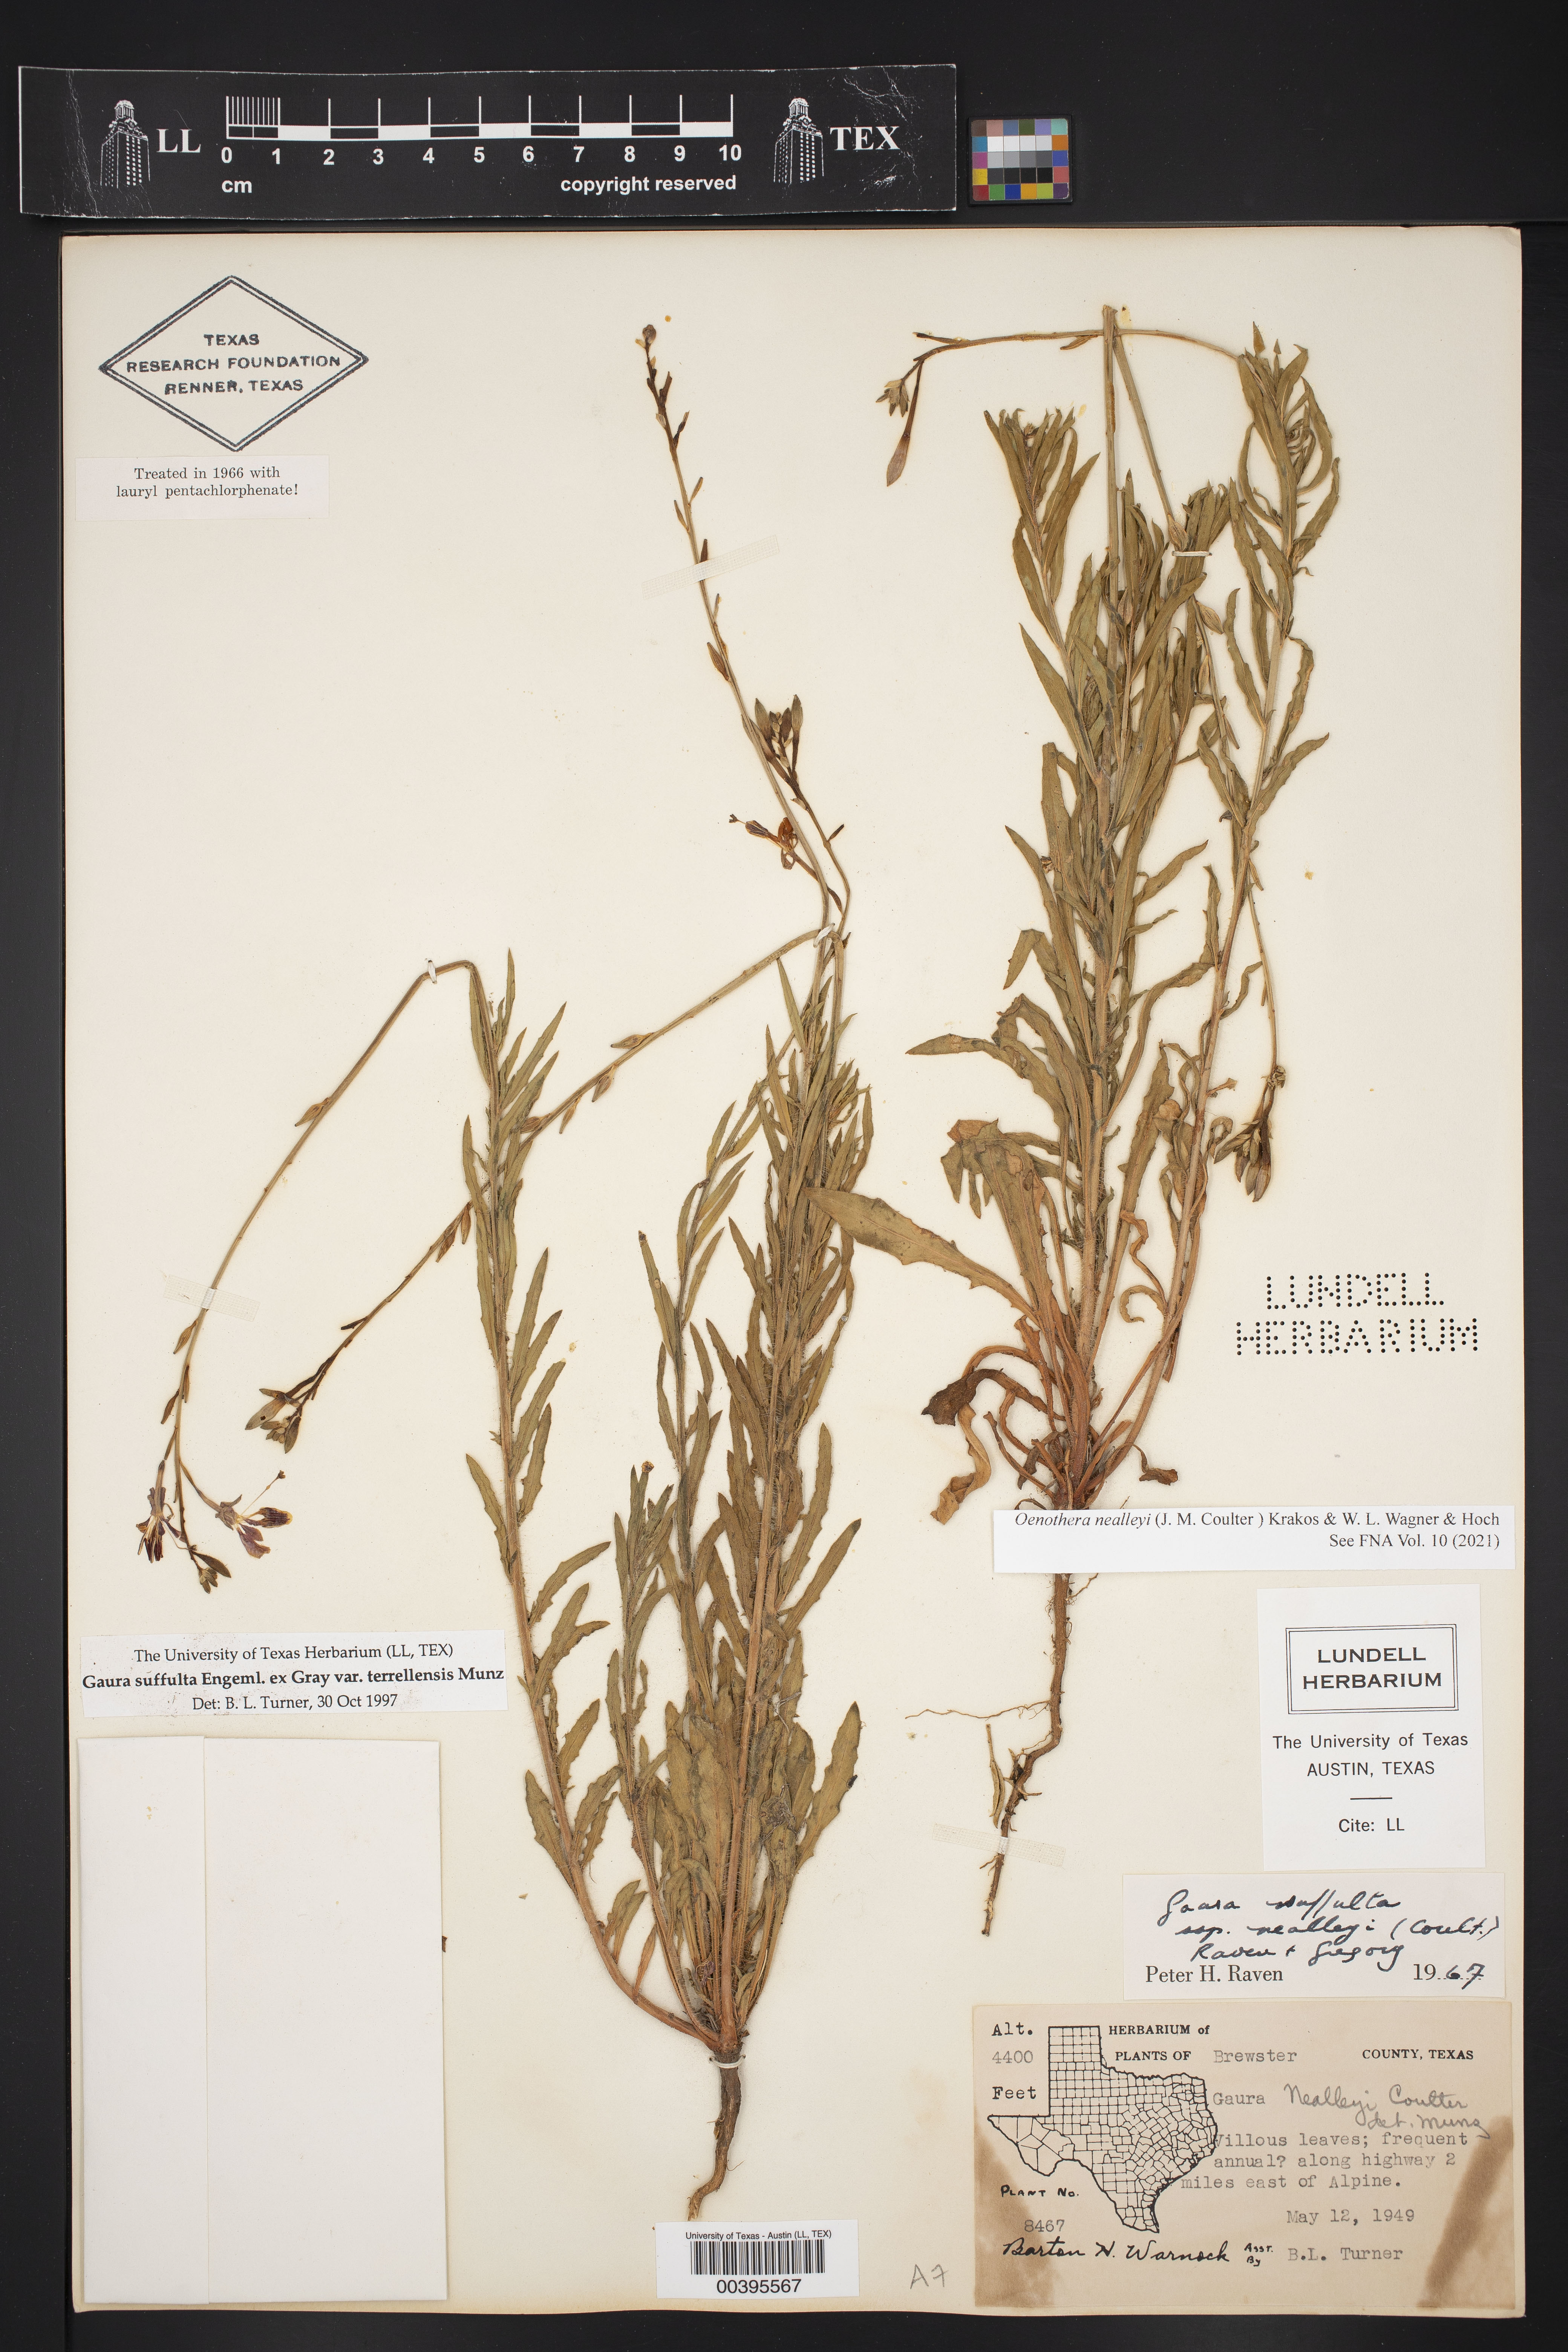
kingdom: Plantae
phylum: Tracheophyta
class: Magnoliopsida
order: Myrtales
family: Onagraceae
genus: Oenothera
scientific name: Oenothera suffulta
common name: Kisses
